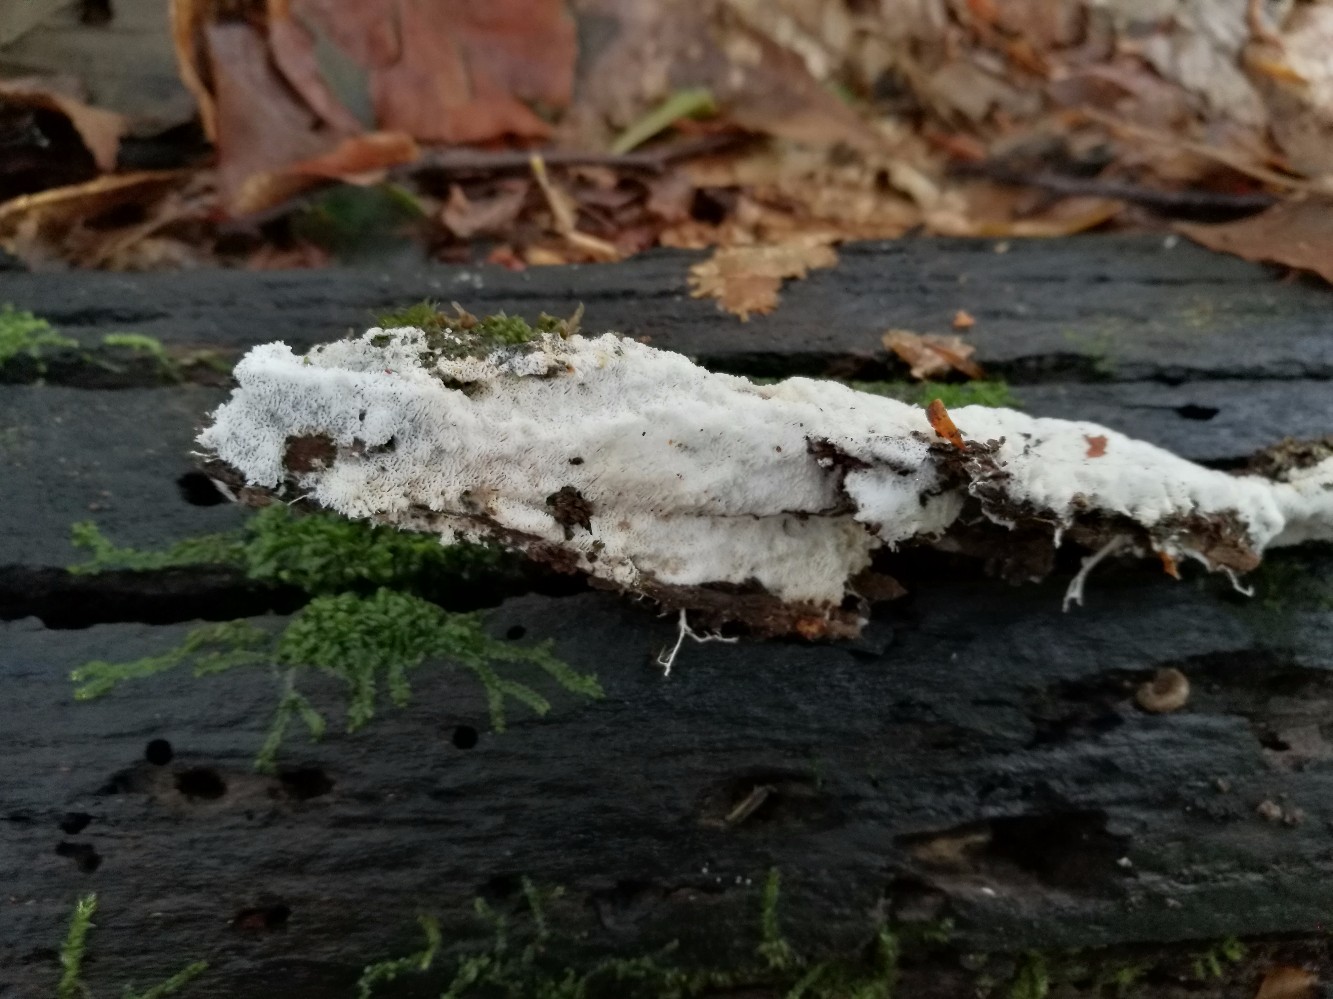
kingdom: Fungi
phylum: Basidiomycota
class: Agaricomycetes
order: Trechisporales
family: Sistotremataceae
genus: Trechispora
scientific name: Trechispora hymenocystis
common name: poret vathinde
